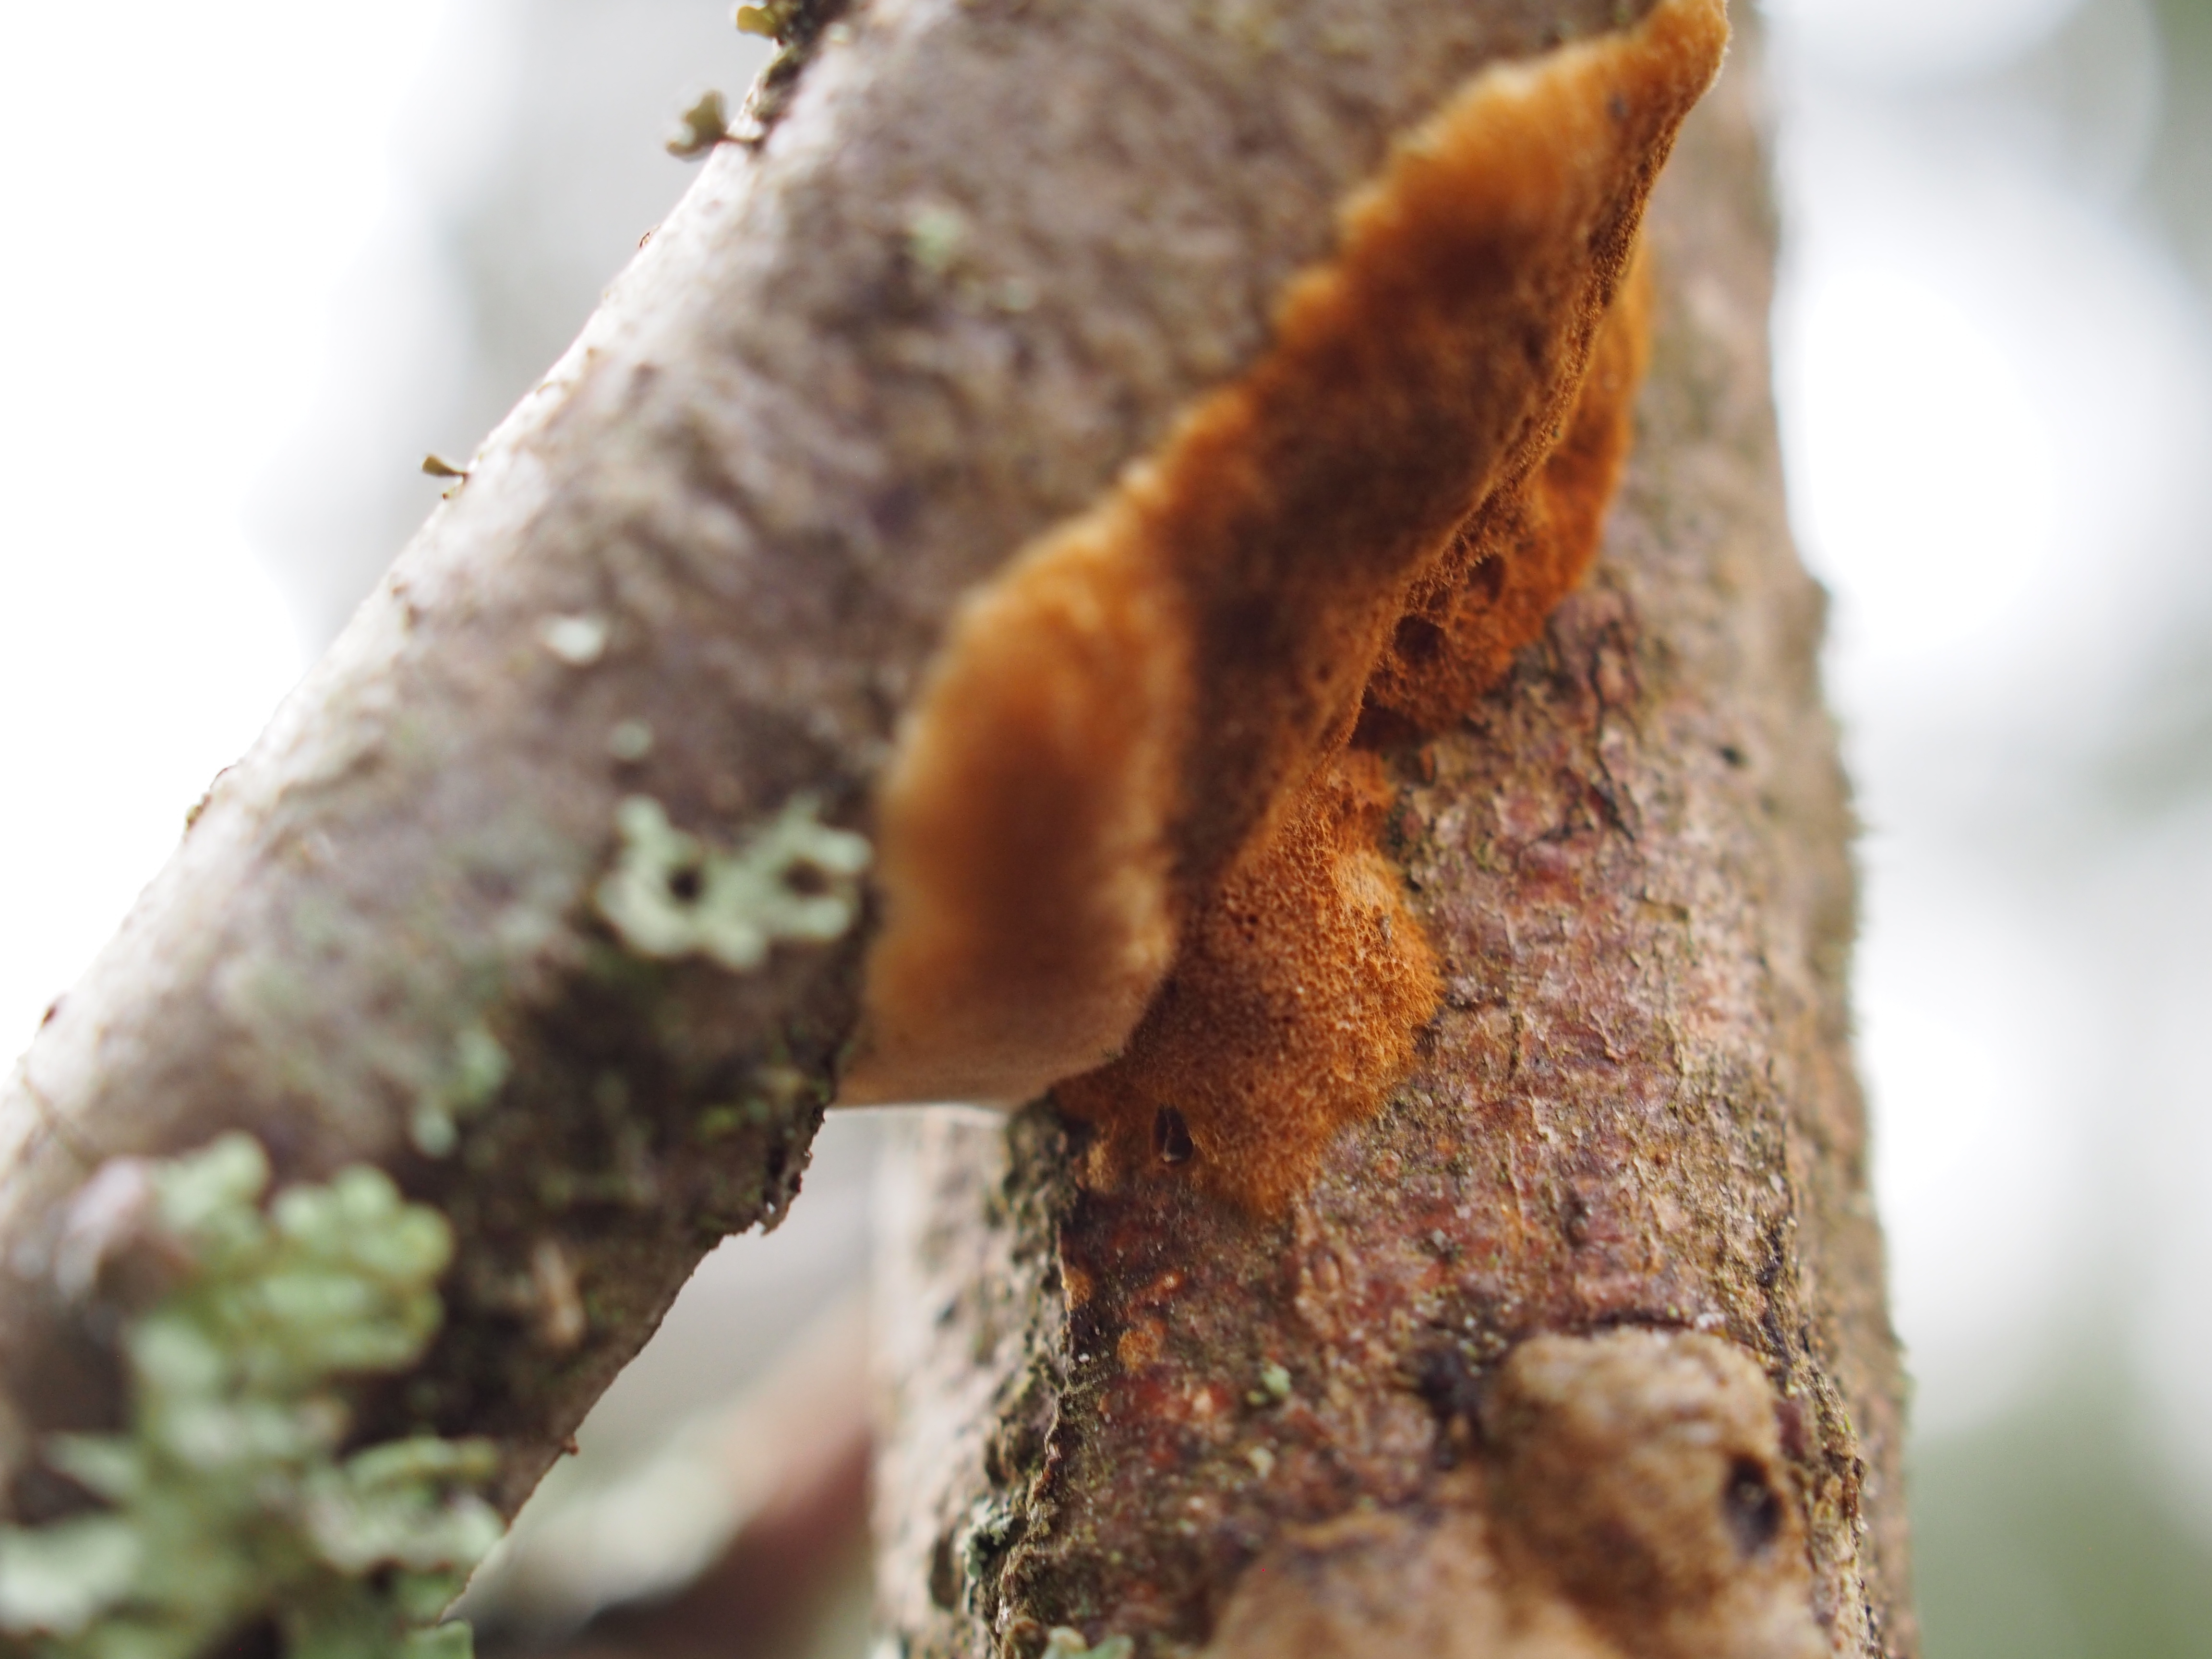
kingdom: Fungi
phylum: Basidiomycota
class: Agaricomycetes
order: Hymenochaetales
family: Hymenochaetaceae
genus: Hydnoporia
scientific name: Hydnoporia tabacina
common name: Willow glue
